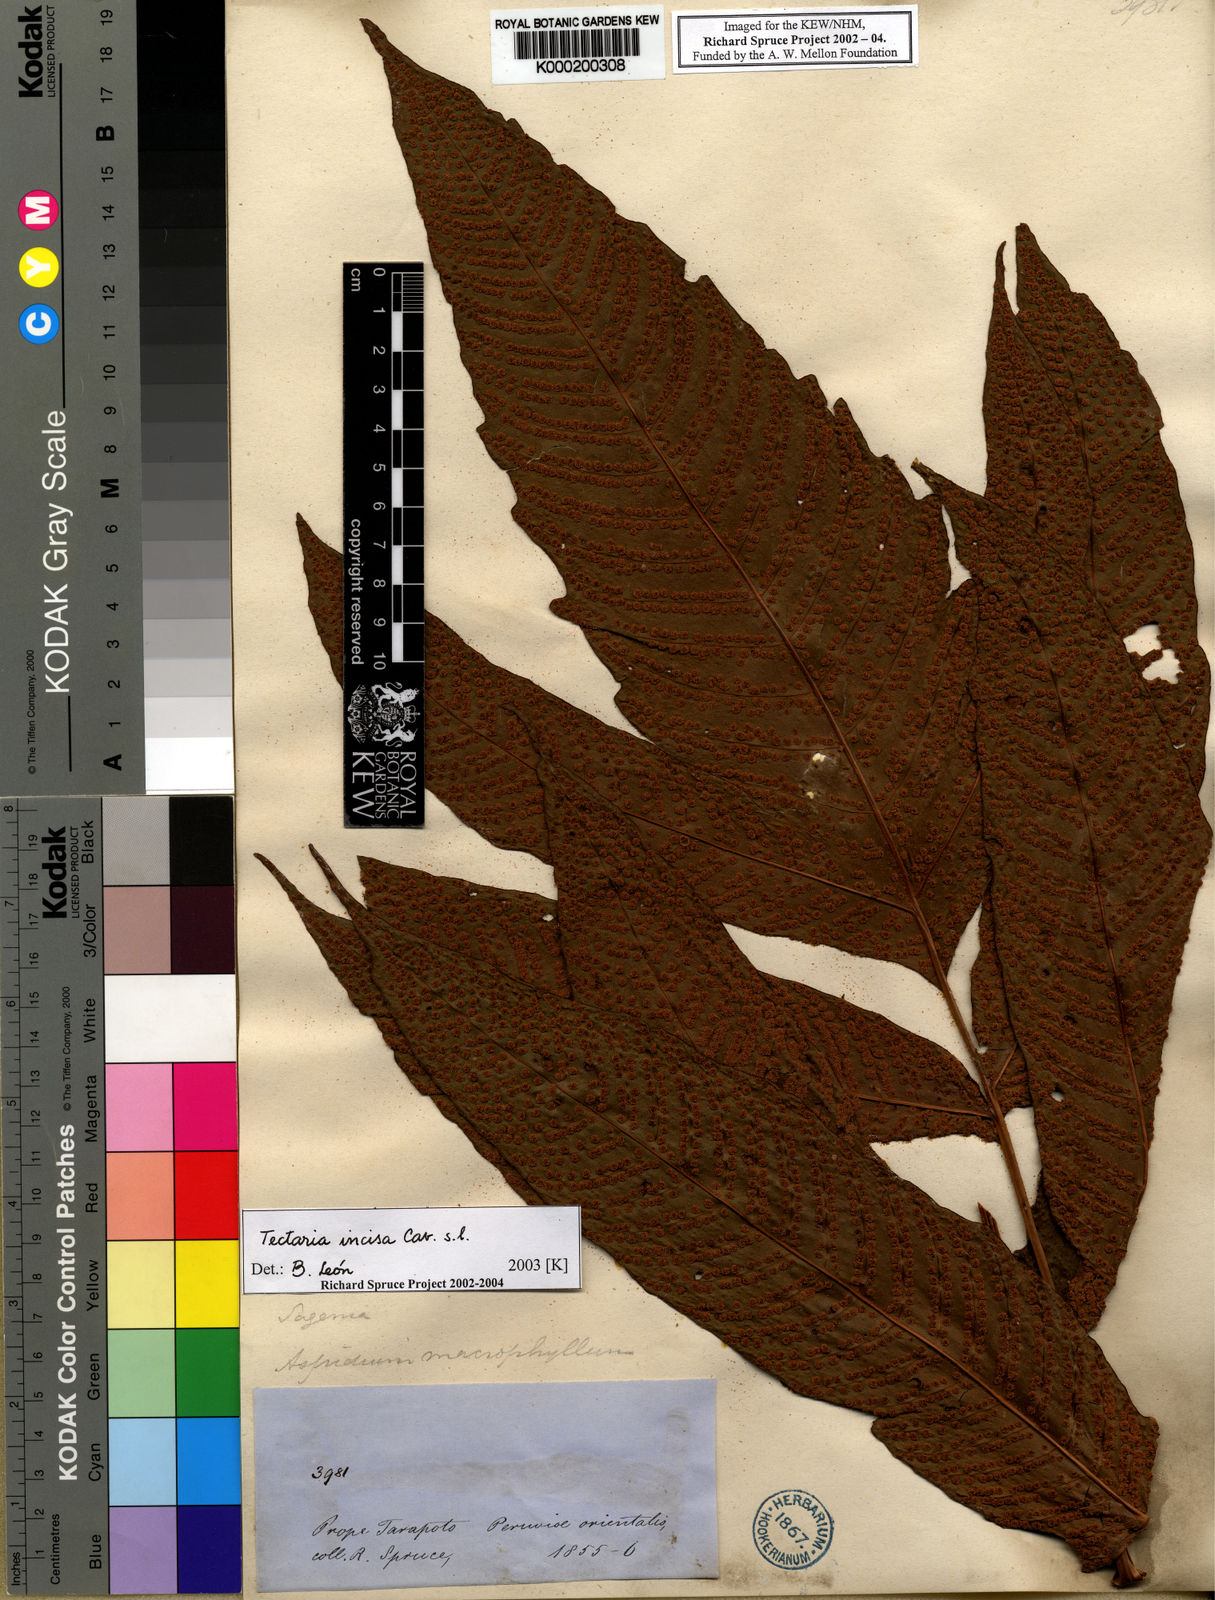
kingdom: Plantae
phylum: Tracheophyta
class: Polypodiopsida
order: Polypodiales
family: Tectariaceae
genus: Tectaria
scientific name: Tectaria incisa
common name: Incised halberd fern
